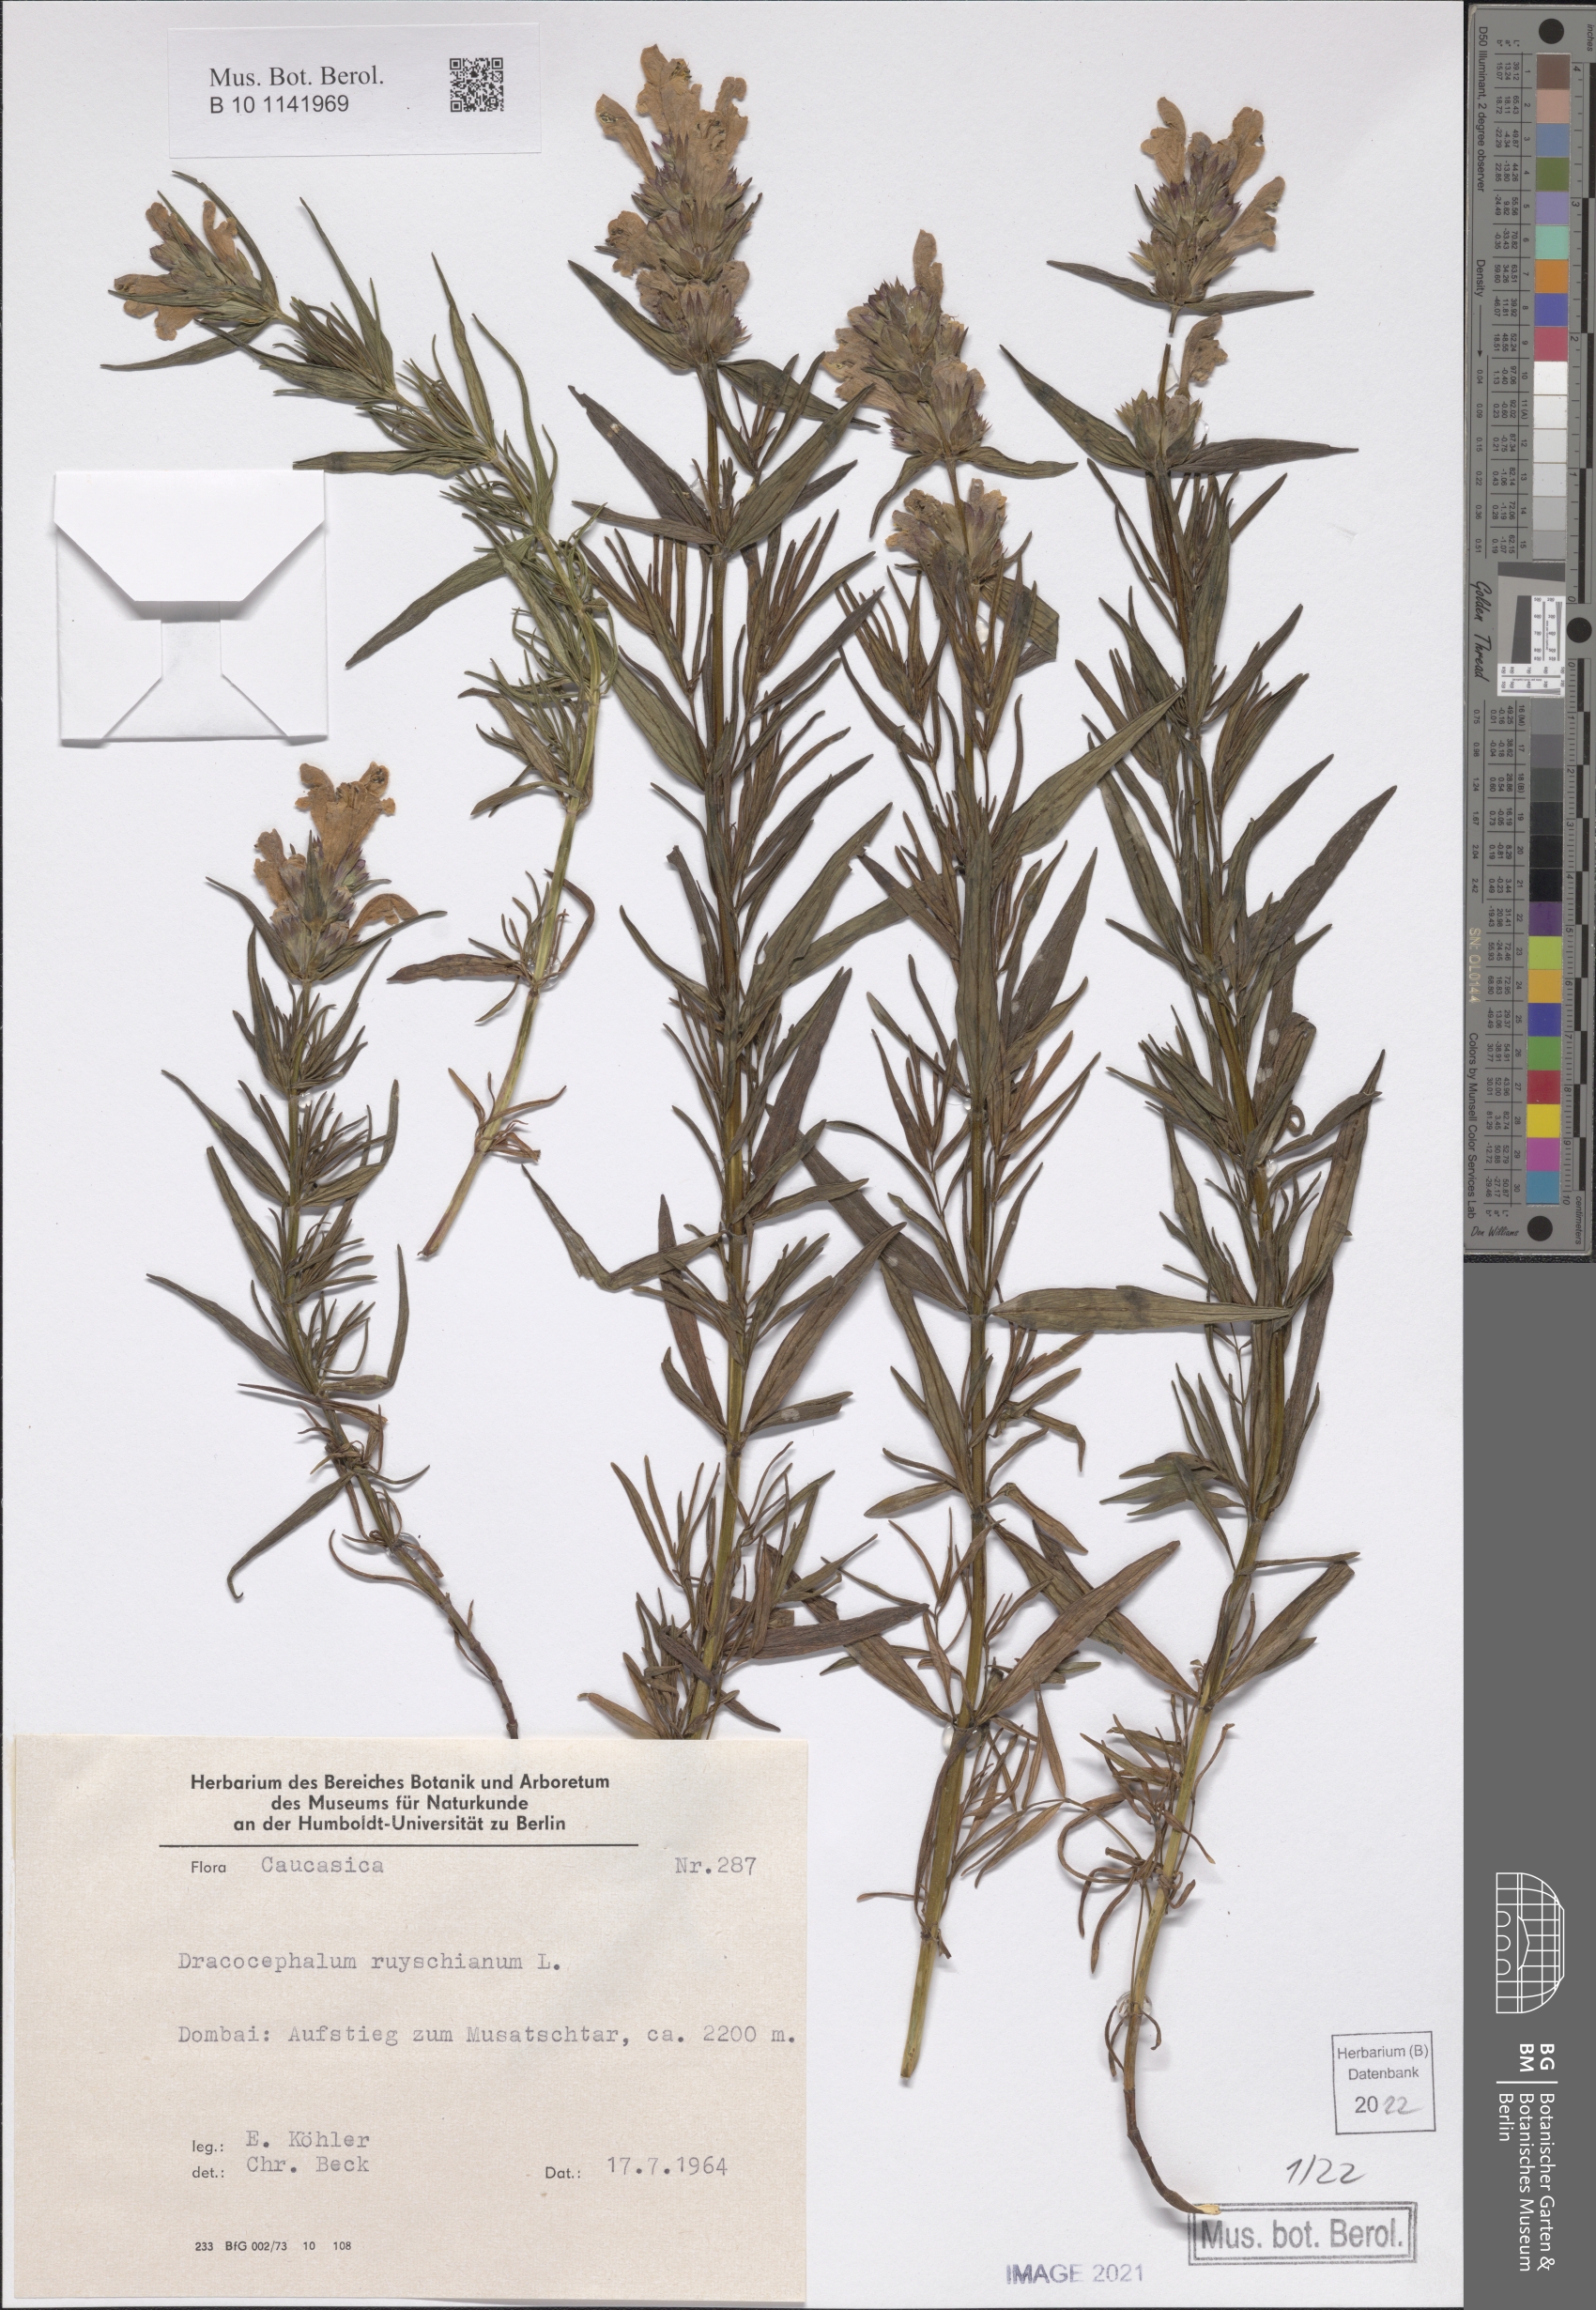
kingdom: Plantae
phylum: Tracheophyta
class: Magnoliopsida
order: Lamiales
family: Lamiaceae
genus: Dracocephalum
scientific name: Dracocephalum ruyschiana
